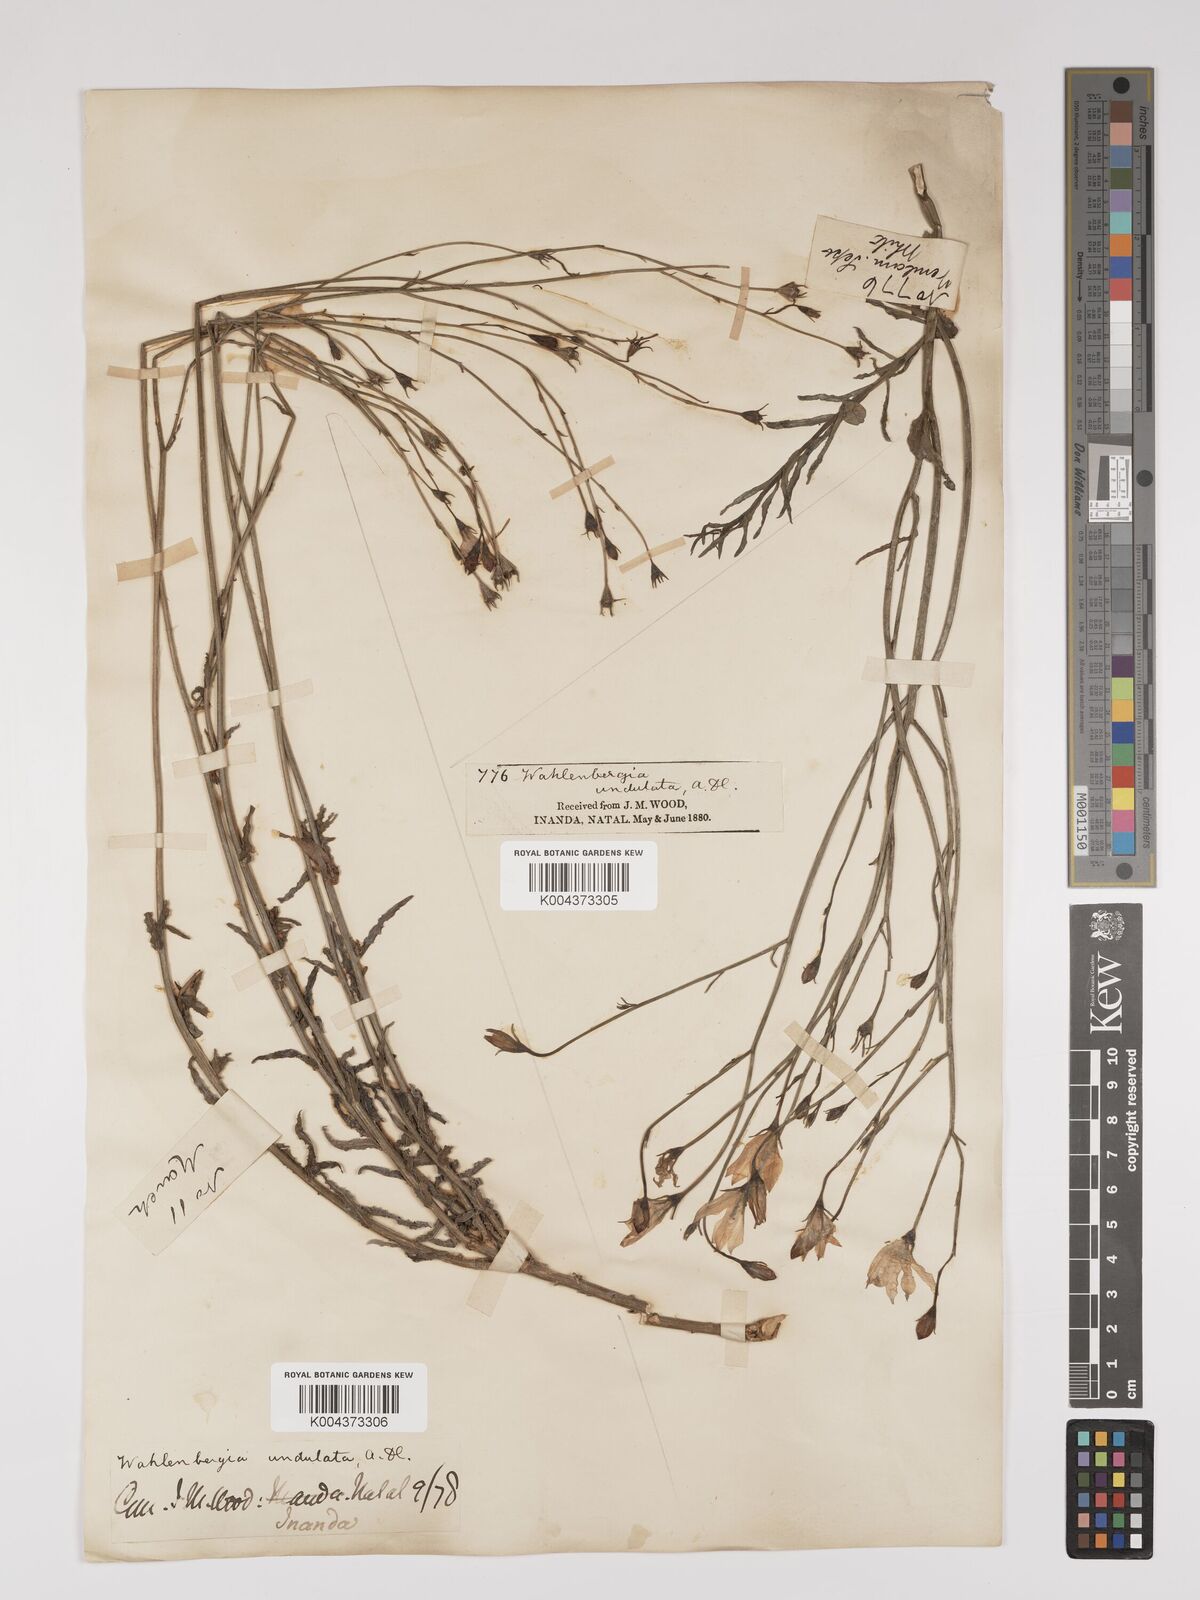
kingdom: Plantae
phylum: Tracheophyta
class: Magnoliopsida
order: Asterales
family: Campanulaceae
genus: Wahlenbergia
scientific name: Wahlenbergia undulata
